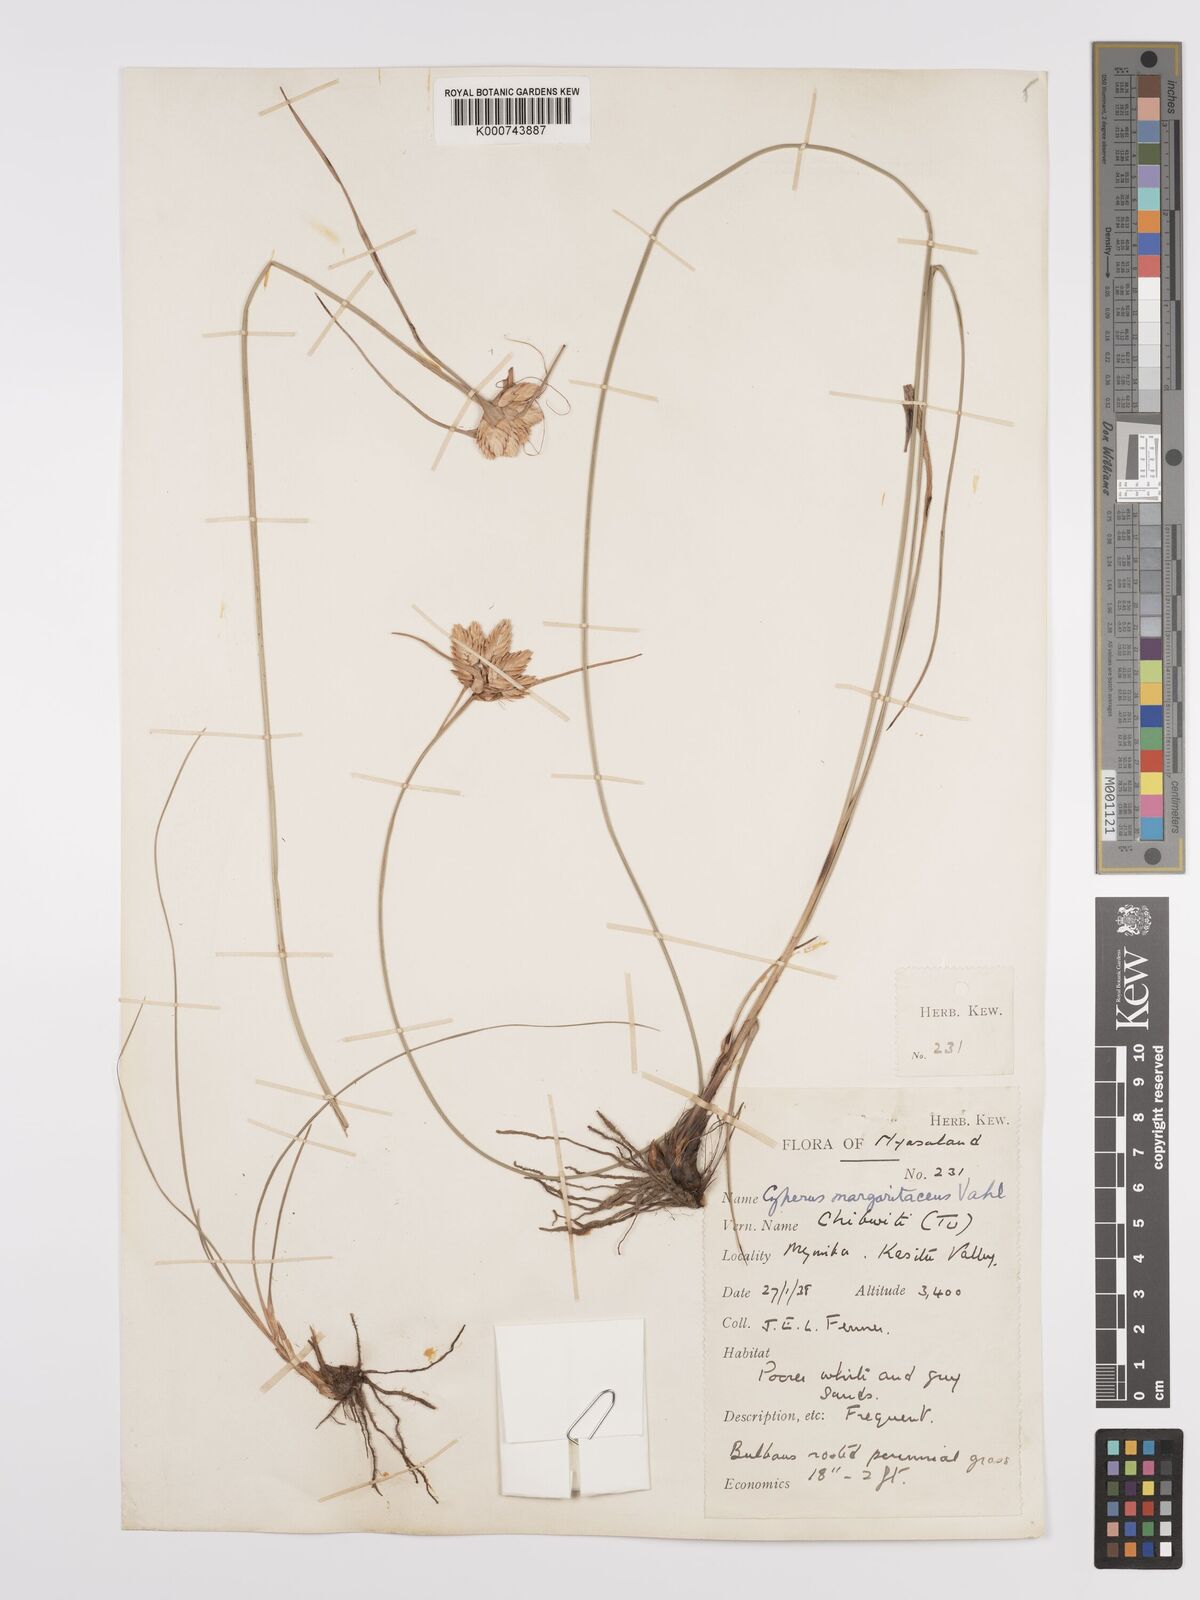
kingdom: Plantae
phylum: Tracheophyta
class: Liliopsida
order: Poales
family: Cyperaceae
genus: Cyperus
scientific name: Cyperus margaritaceus
